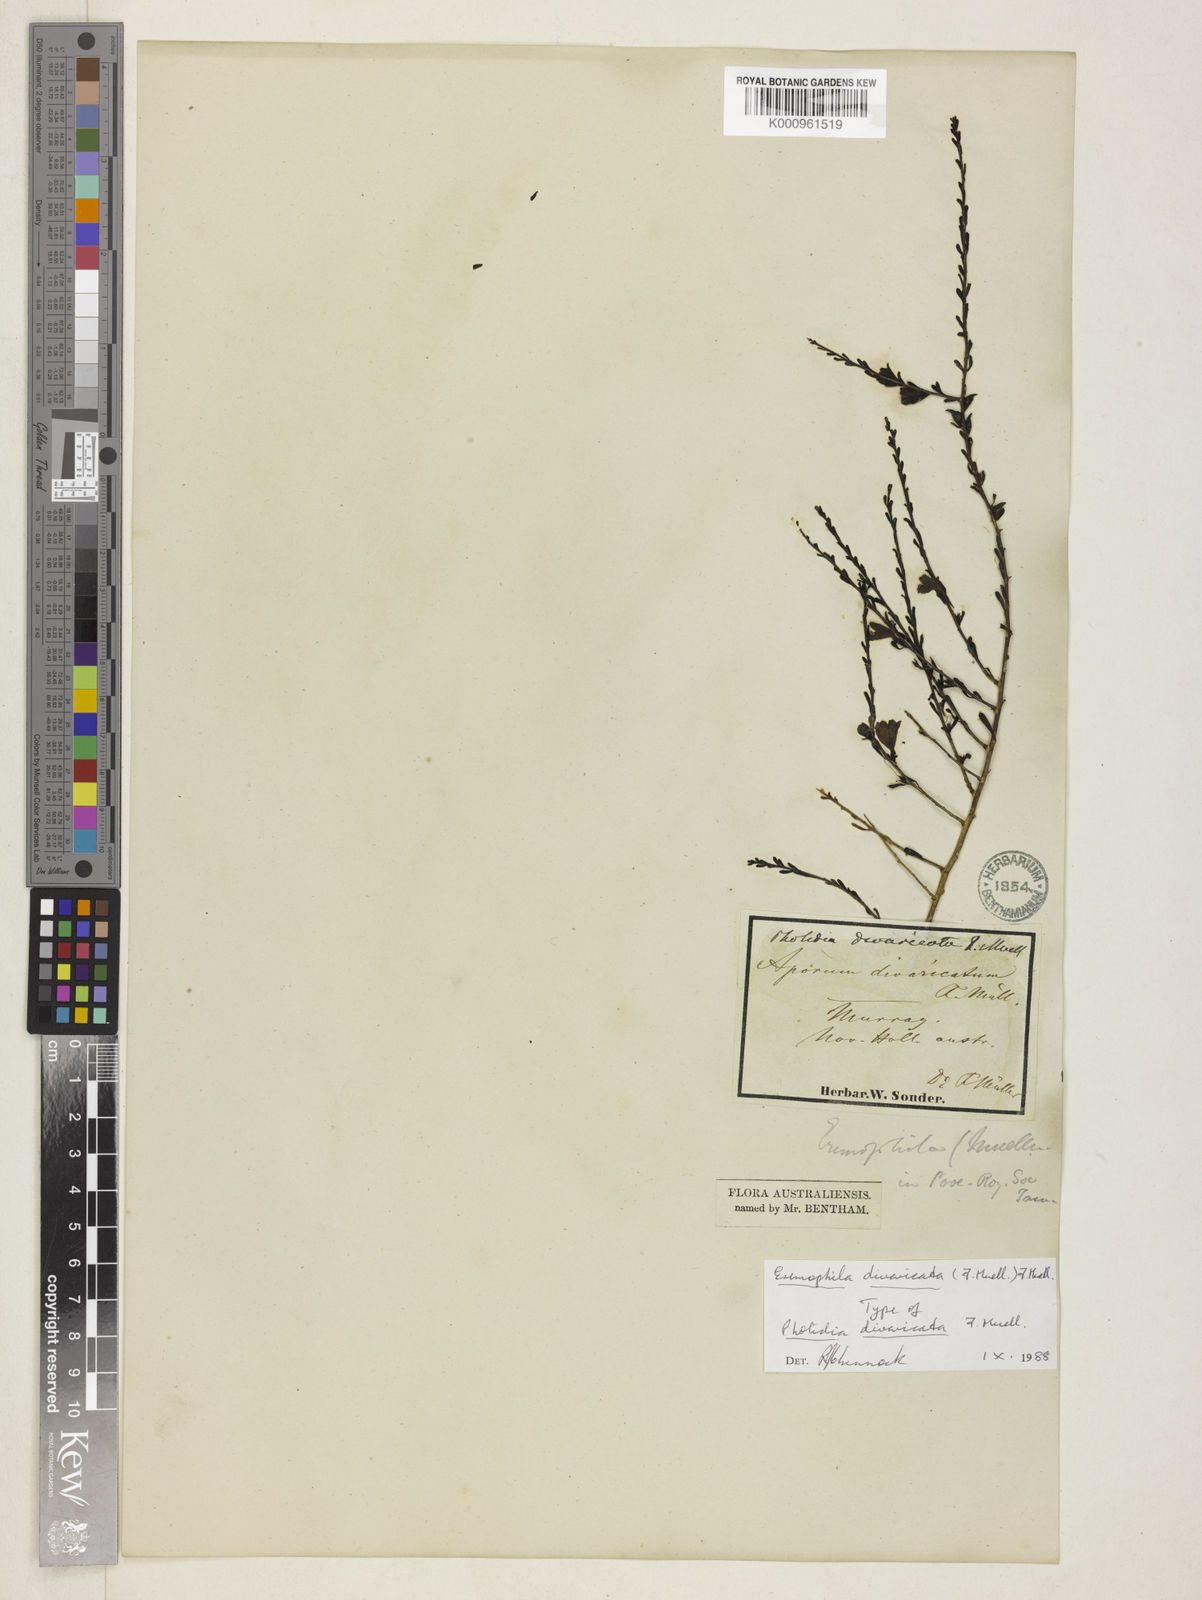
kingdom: Plantae
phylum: Tracheophyta
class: Magnoliopsida
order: Lamiales
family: Scrophulariaceae
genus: Eremophila
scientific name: Eremophila divaricata
